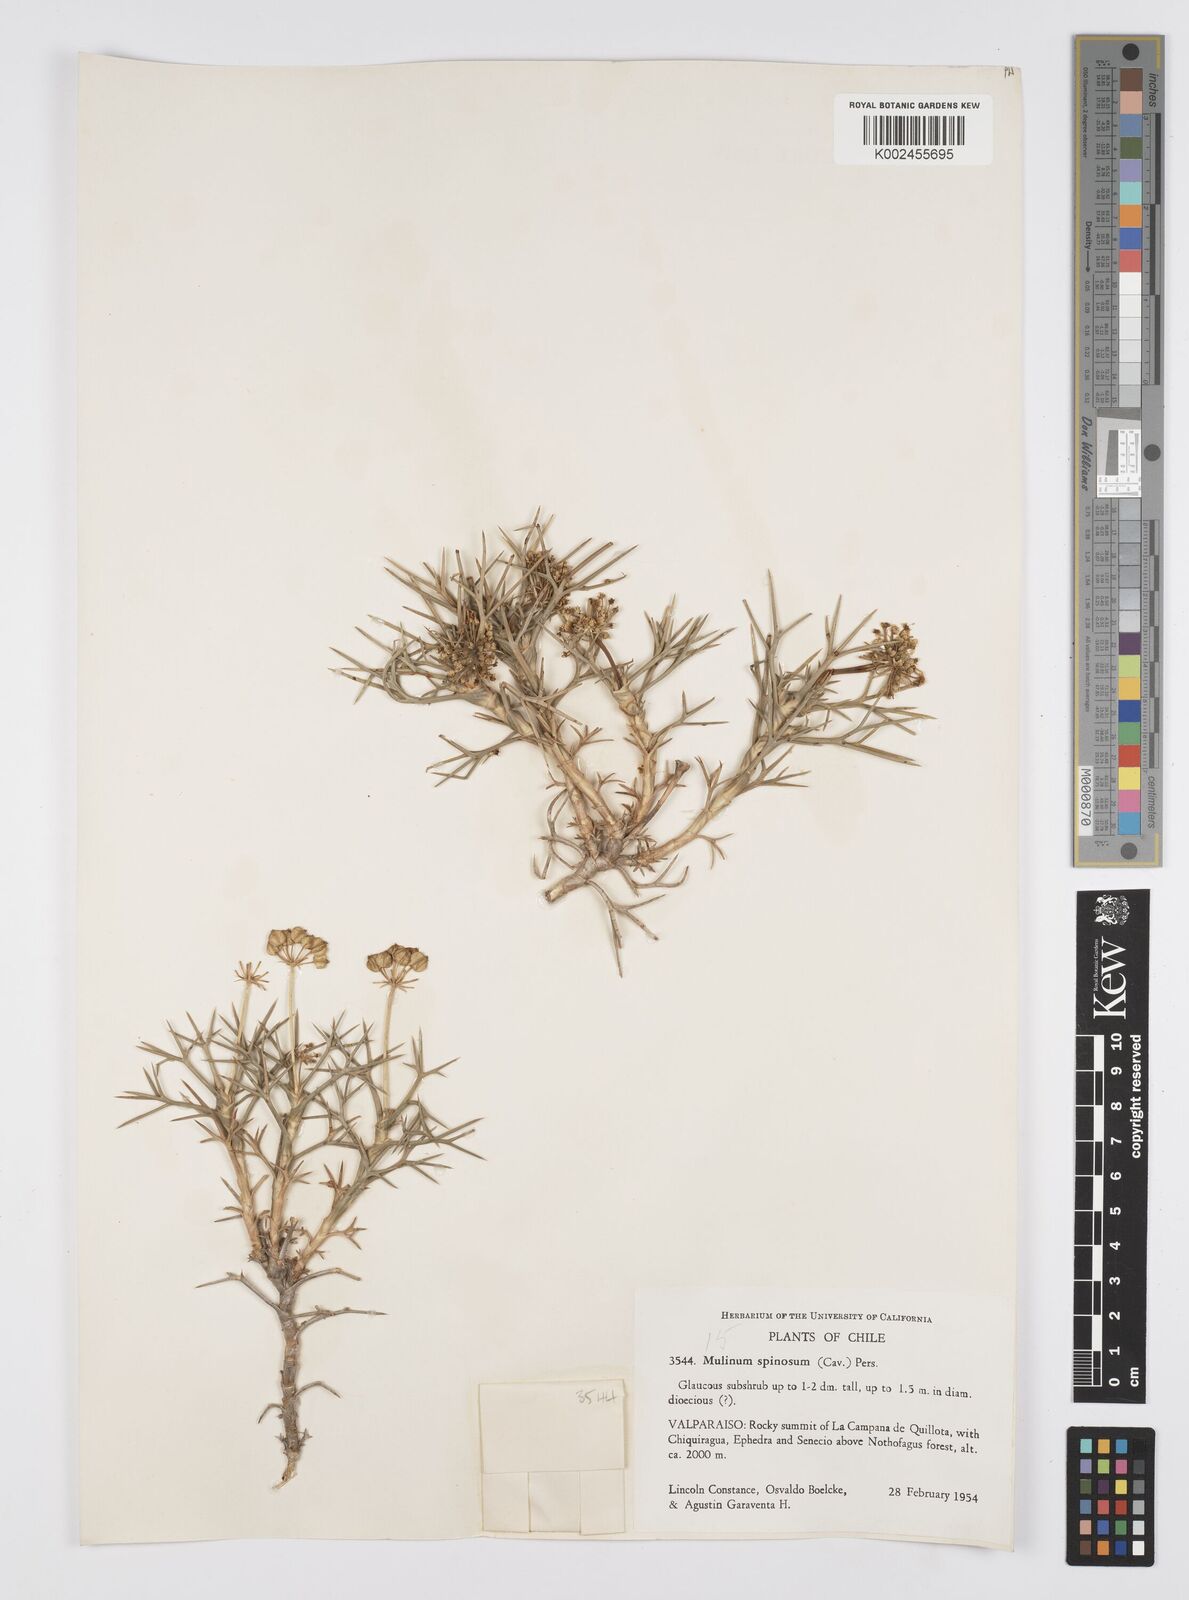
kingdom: Plantae
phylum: Tracheophyta
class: Magnoliopsida
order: Apiales
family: Apiaceae
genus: Azorella
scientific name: Azorella prolifera
